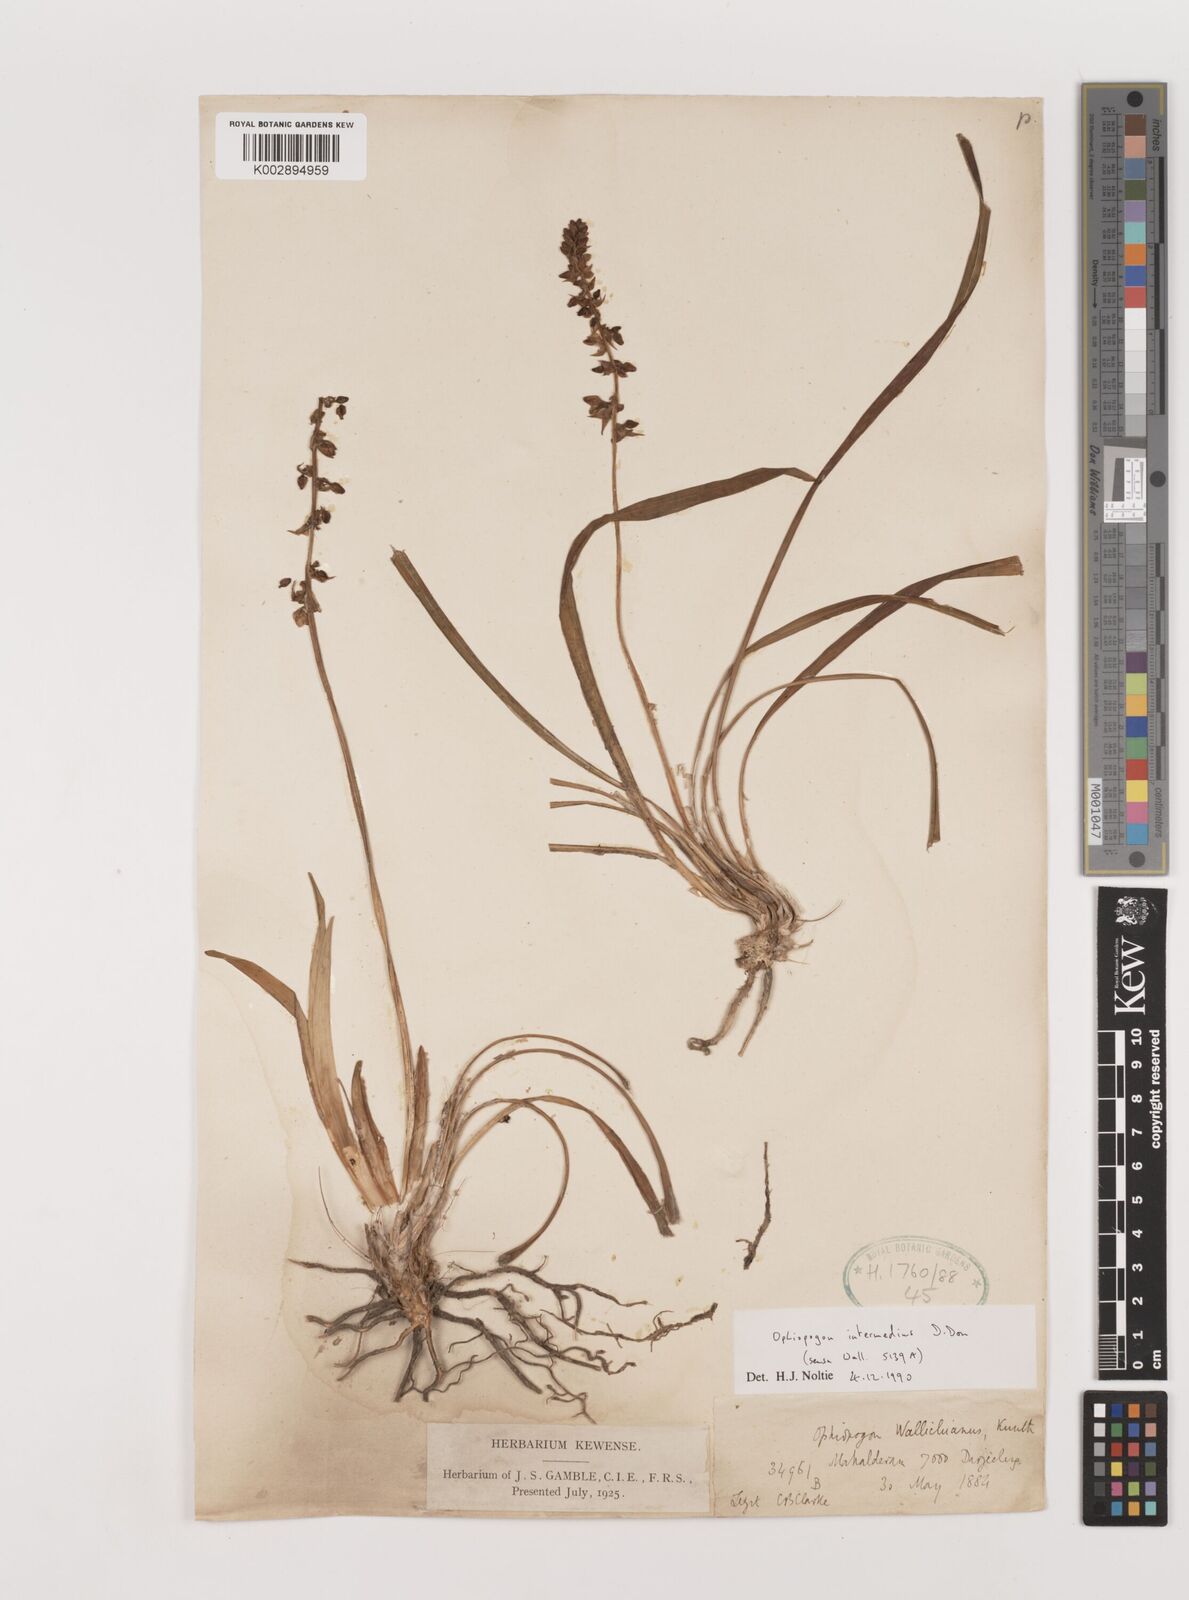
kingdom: Plantae
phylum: Tracheophyta
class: Liliopsida
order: Asparagales
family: Asparagaceae
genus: Ophiopogon
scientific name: Ophiopogon intermedius
